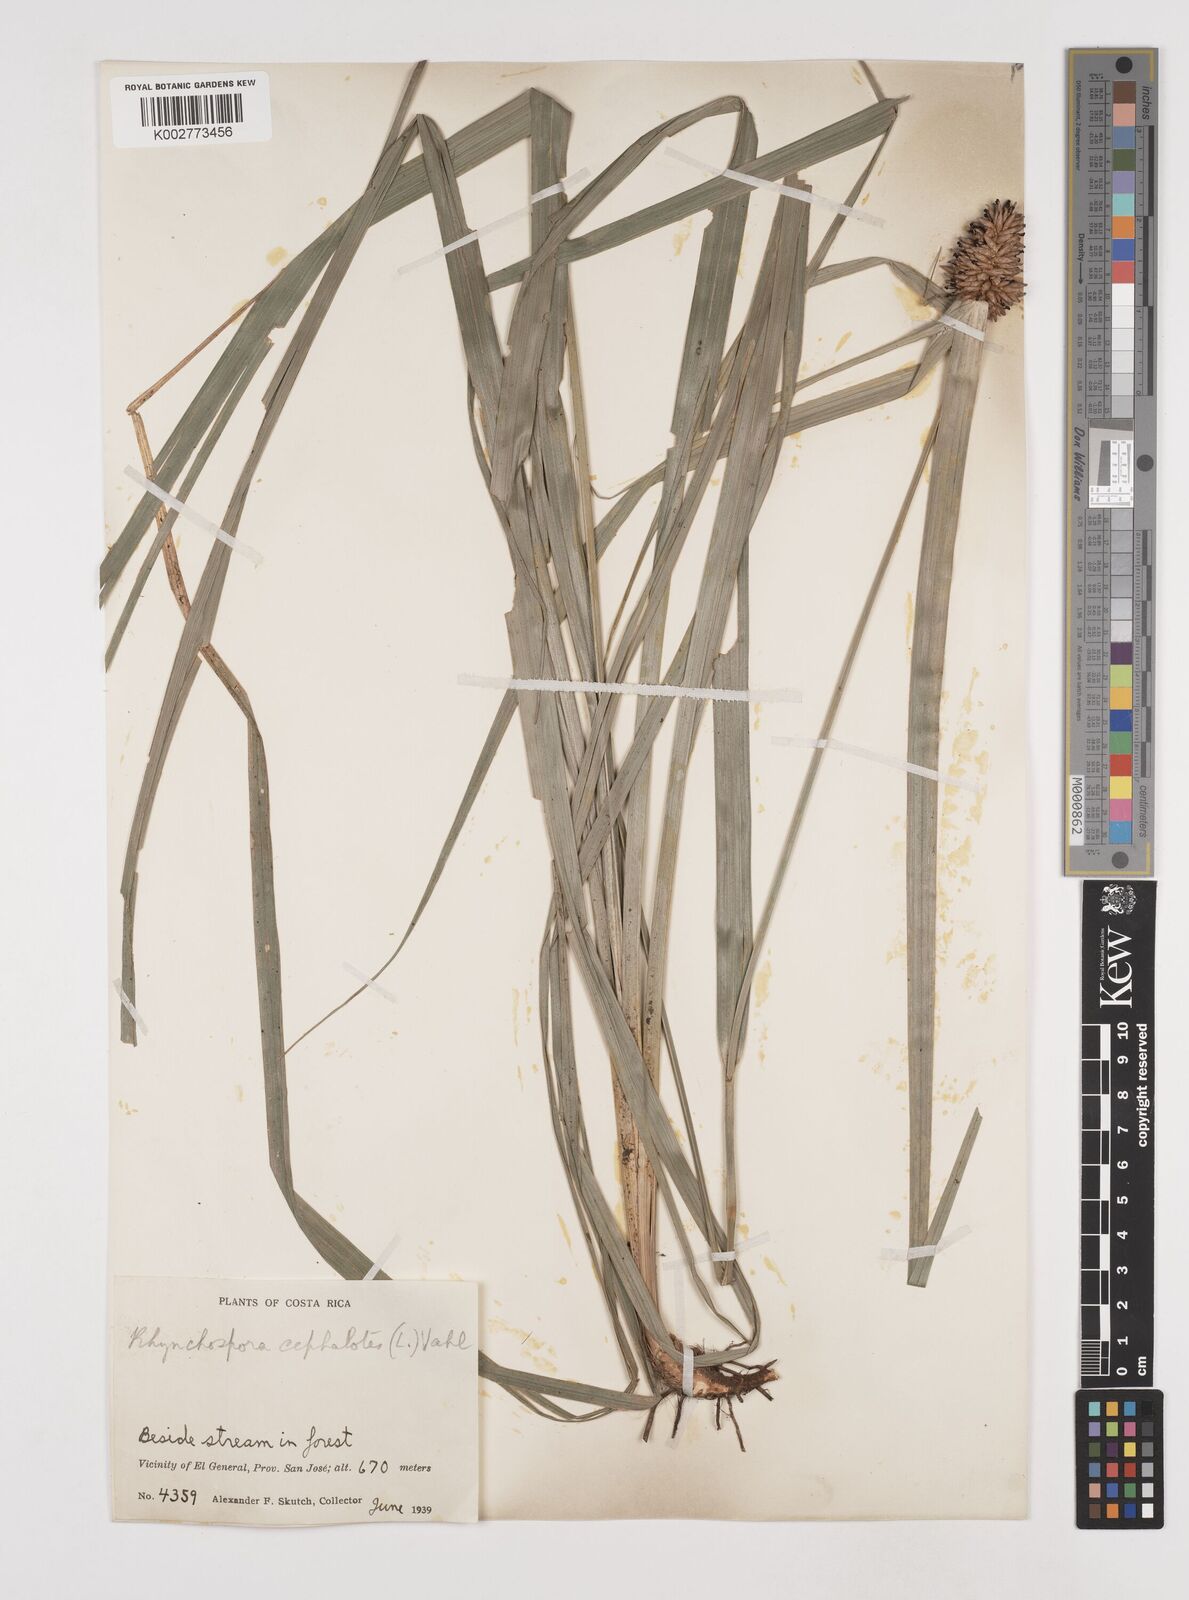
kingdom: Plantae
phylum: Tracheophyta
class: Liliopsida
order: Poales
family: Cyperaceae
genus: Rhynchospora
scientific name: Rhynchospora cephalotes
